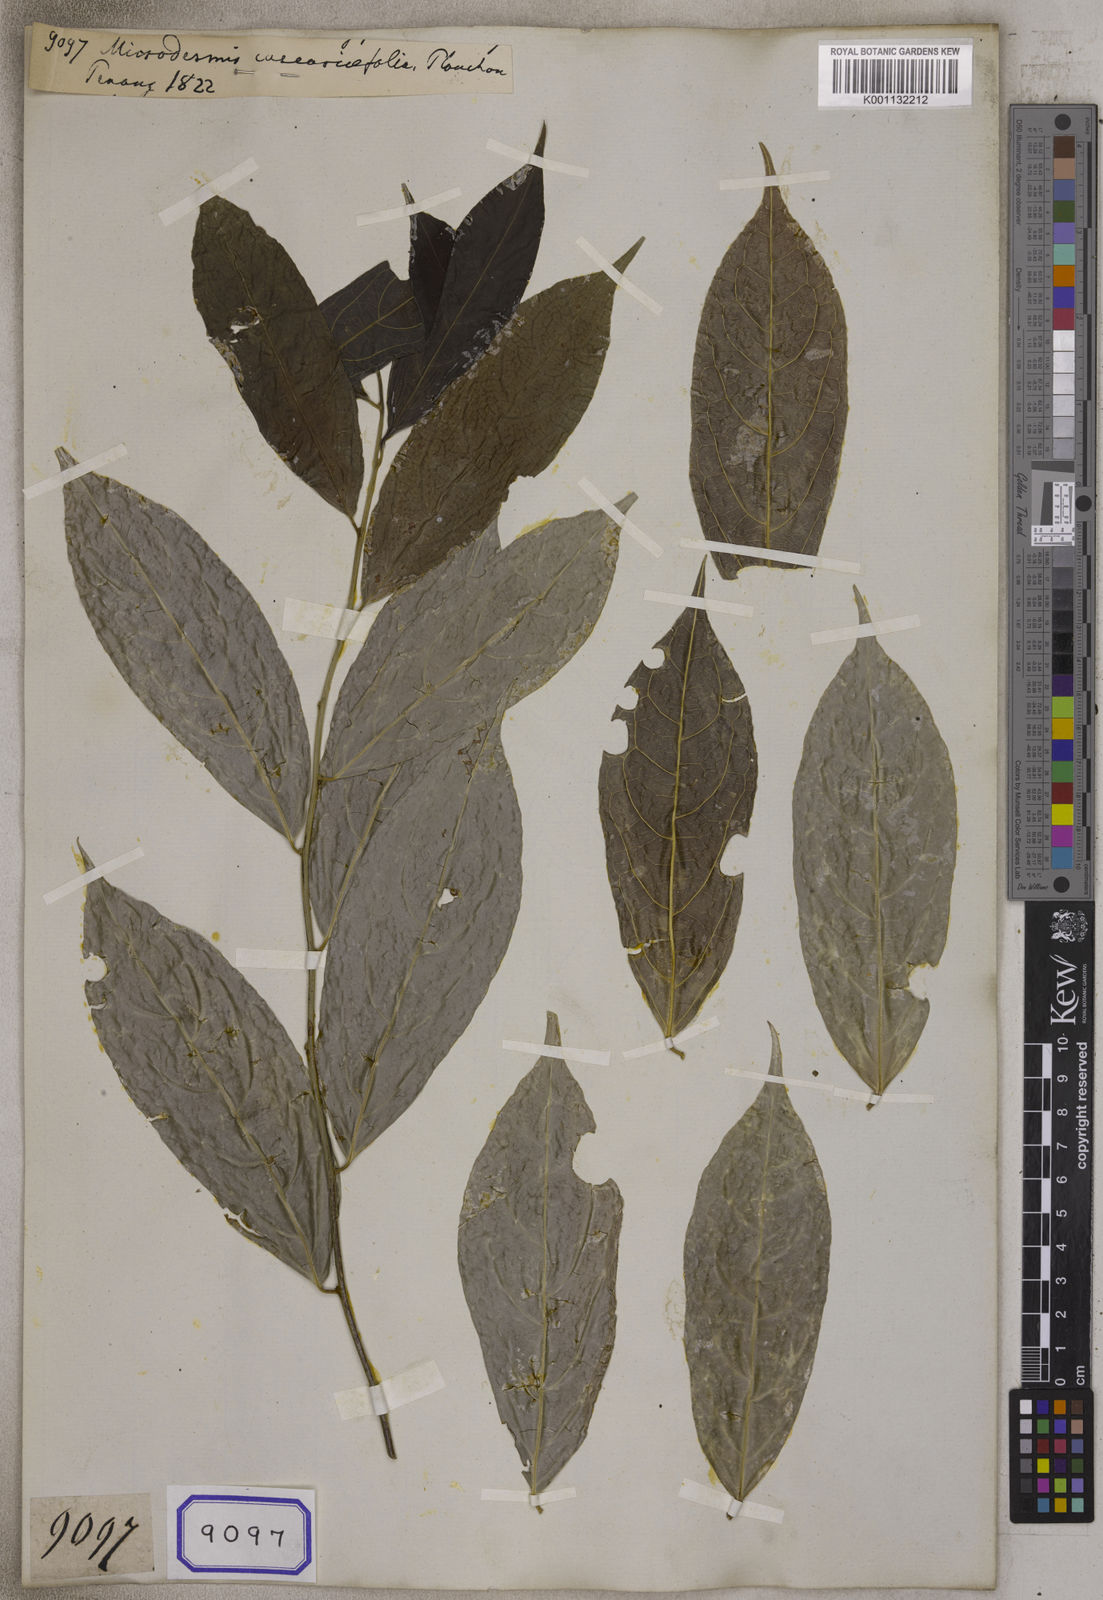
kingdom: Plantae
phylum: Tracheophyta
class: Magnoliopsida
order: Malpighiales
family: Pandaceae
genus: Microdesmis
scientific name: Microdesmis caseariifolia
